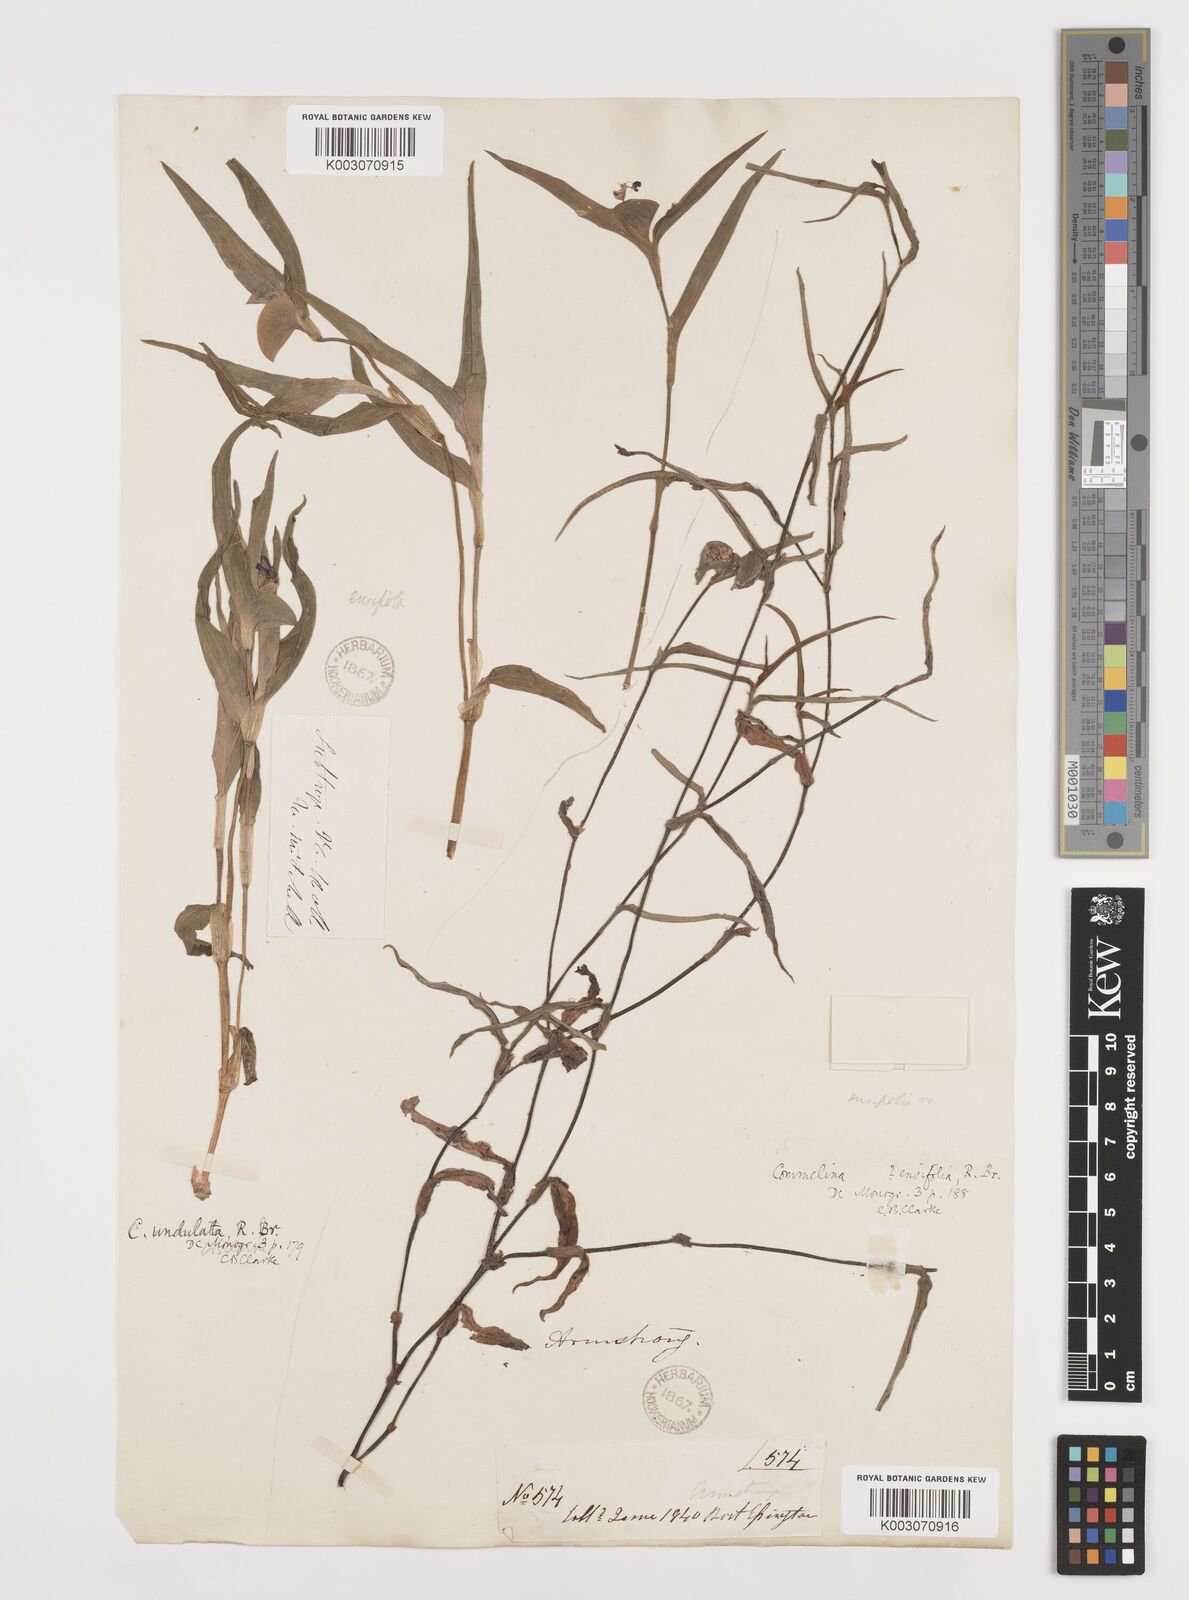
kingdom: Plantae
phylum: Tracheophyta
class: Liliopsida
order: Commelinales
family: Commelinaceae
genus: Commelina
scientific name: Commelina ensifolia
